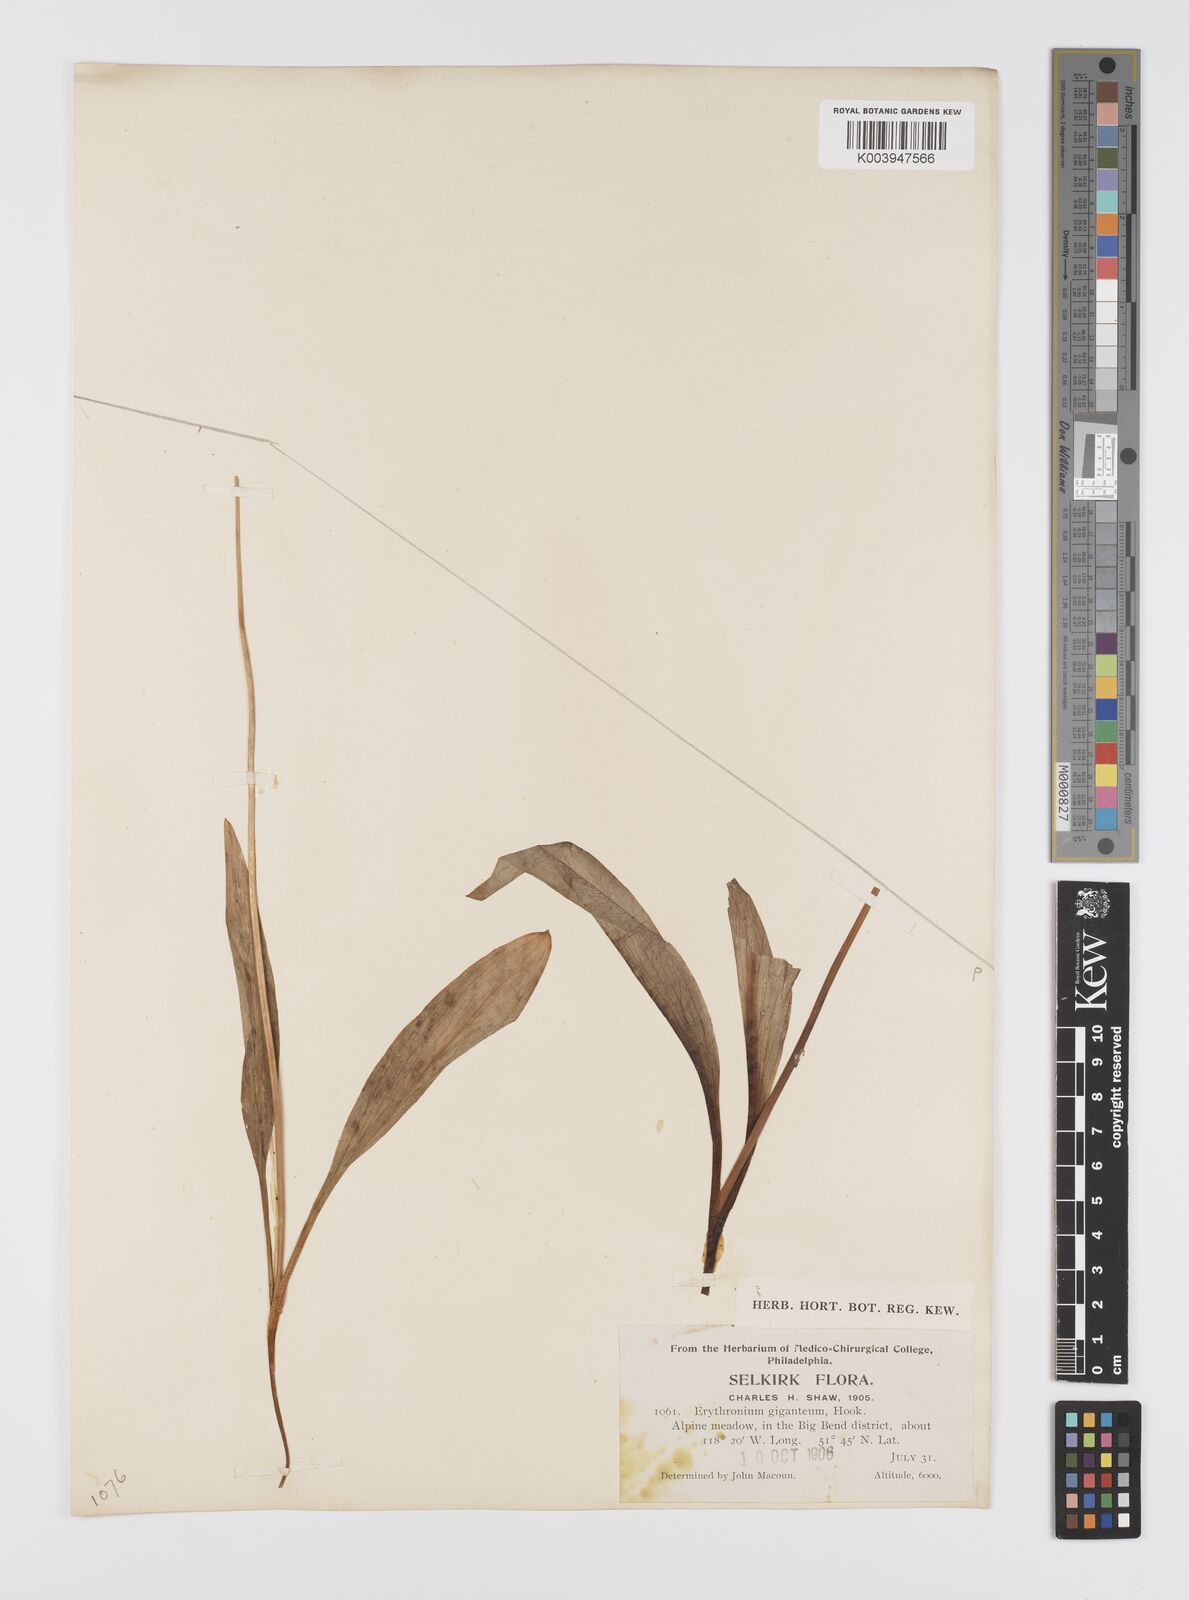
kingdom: Plantae
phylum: Tracheophyta
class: Liliopsida
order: Liliales
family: Liliaceae
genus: Erythronium
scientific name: Erythronium grandiflorum
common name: Avalanche-lily
